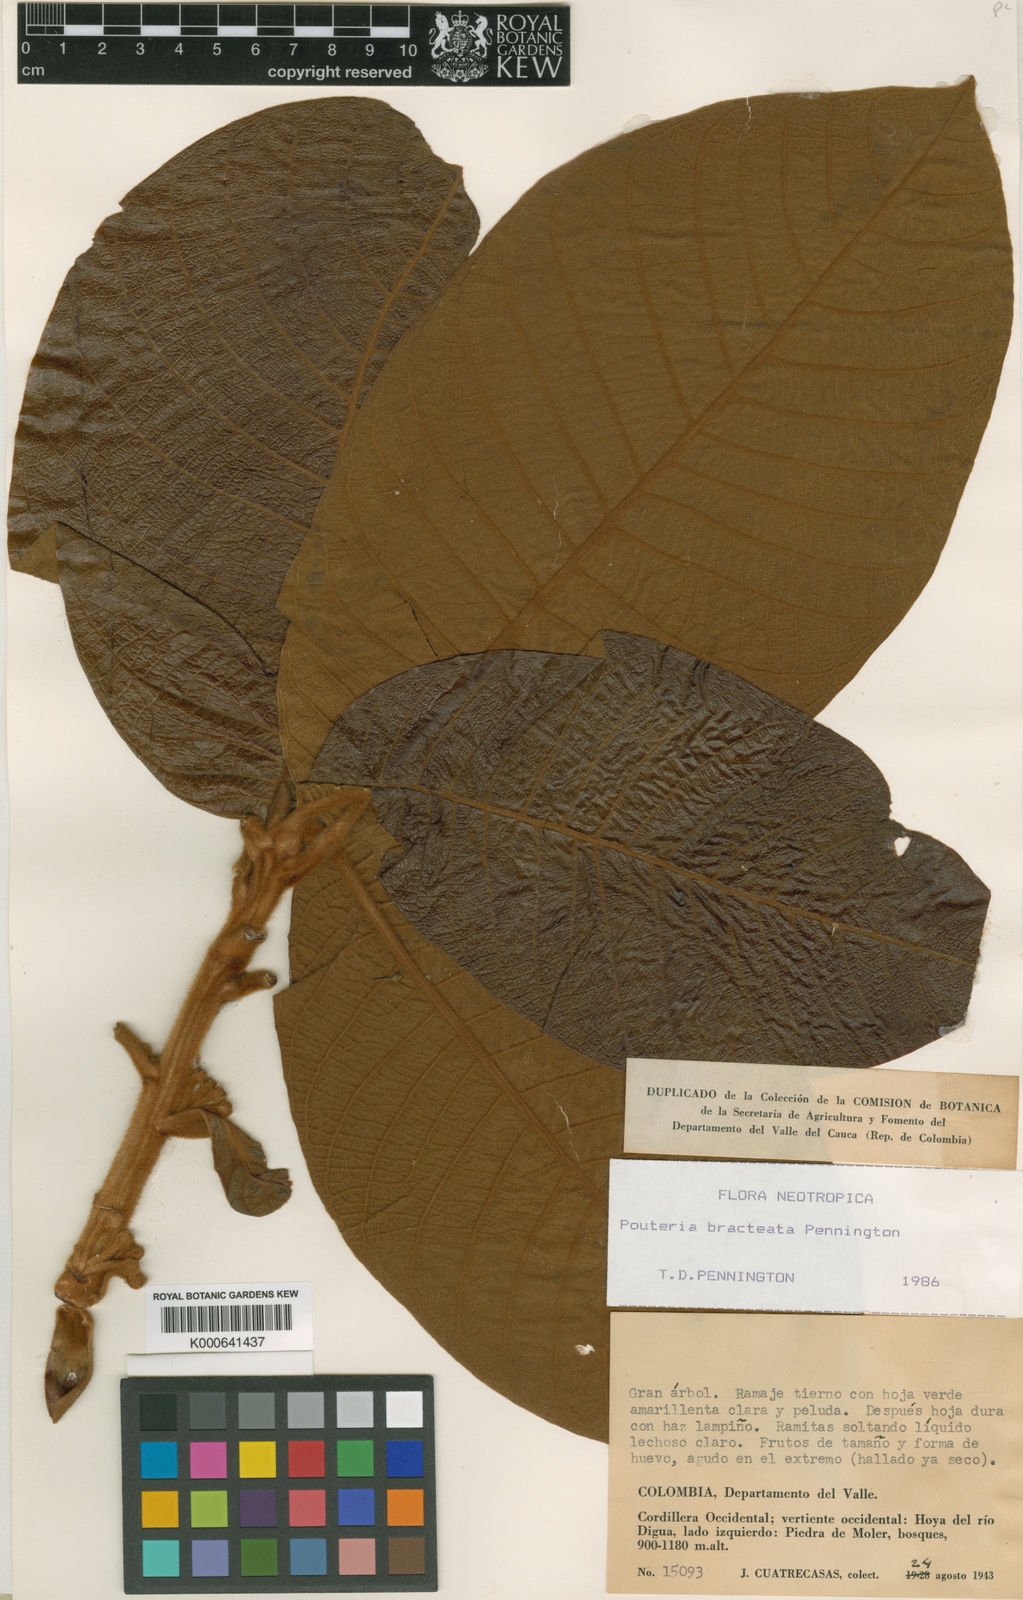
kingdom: Plantae
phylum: Tracheophyta
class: Magnoliopsida
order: Ericales
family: Sapotaceae
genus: Pouteria
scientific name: Pouteria bracteata
